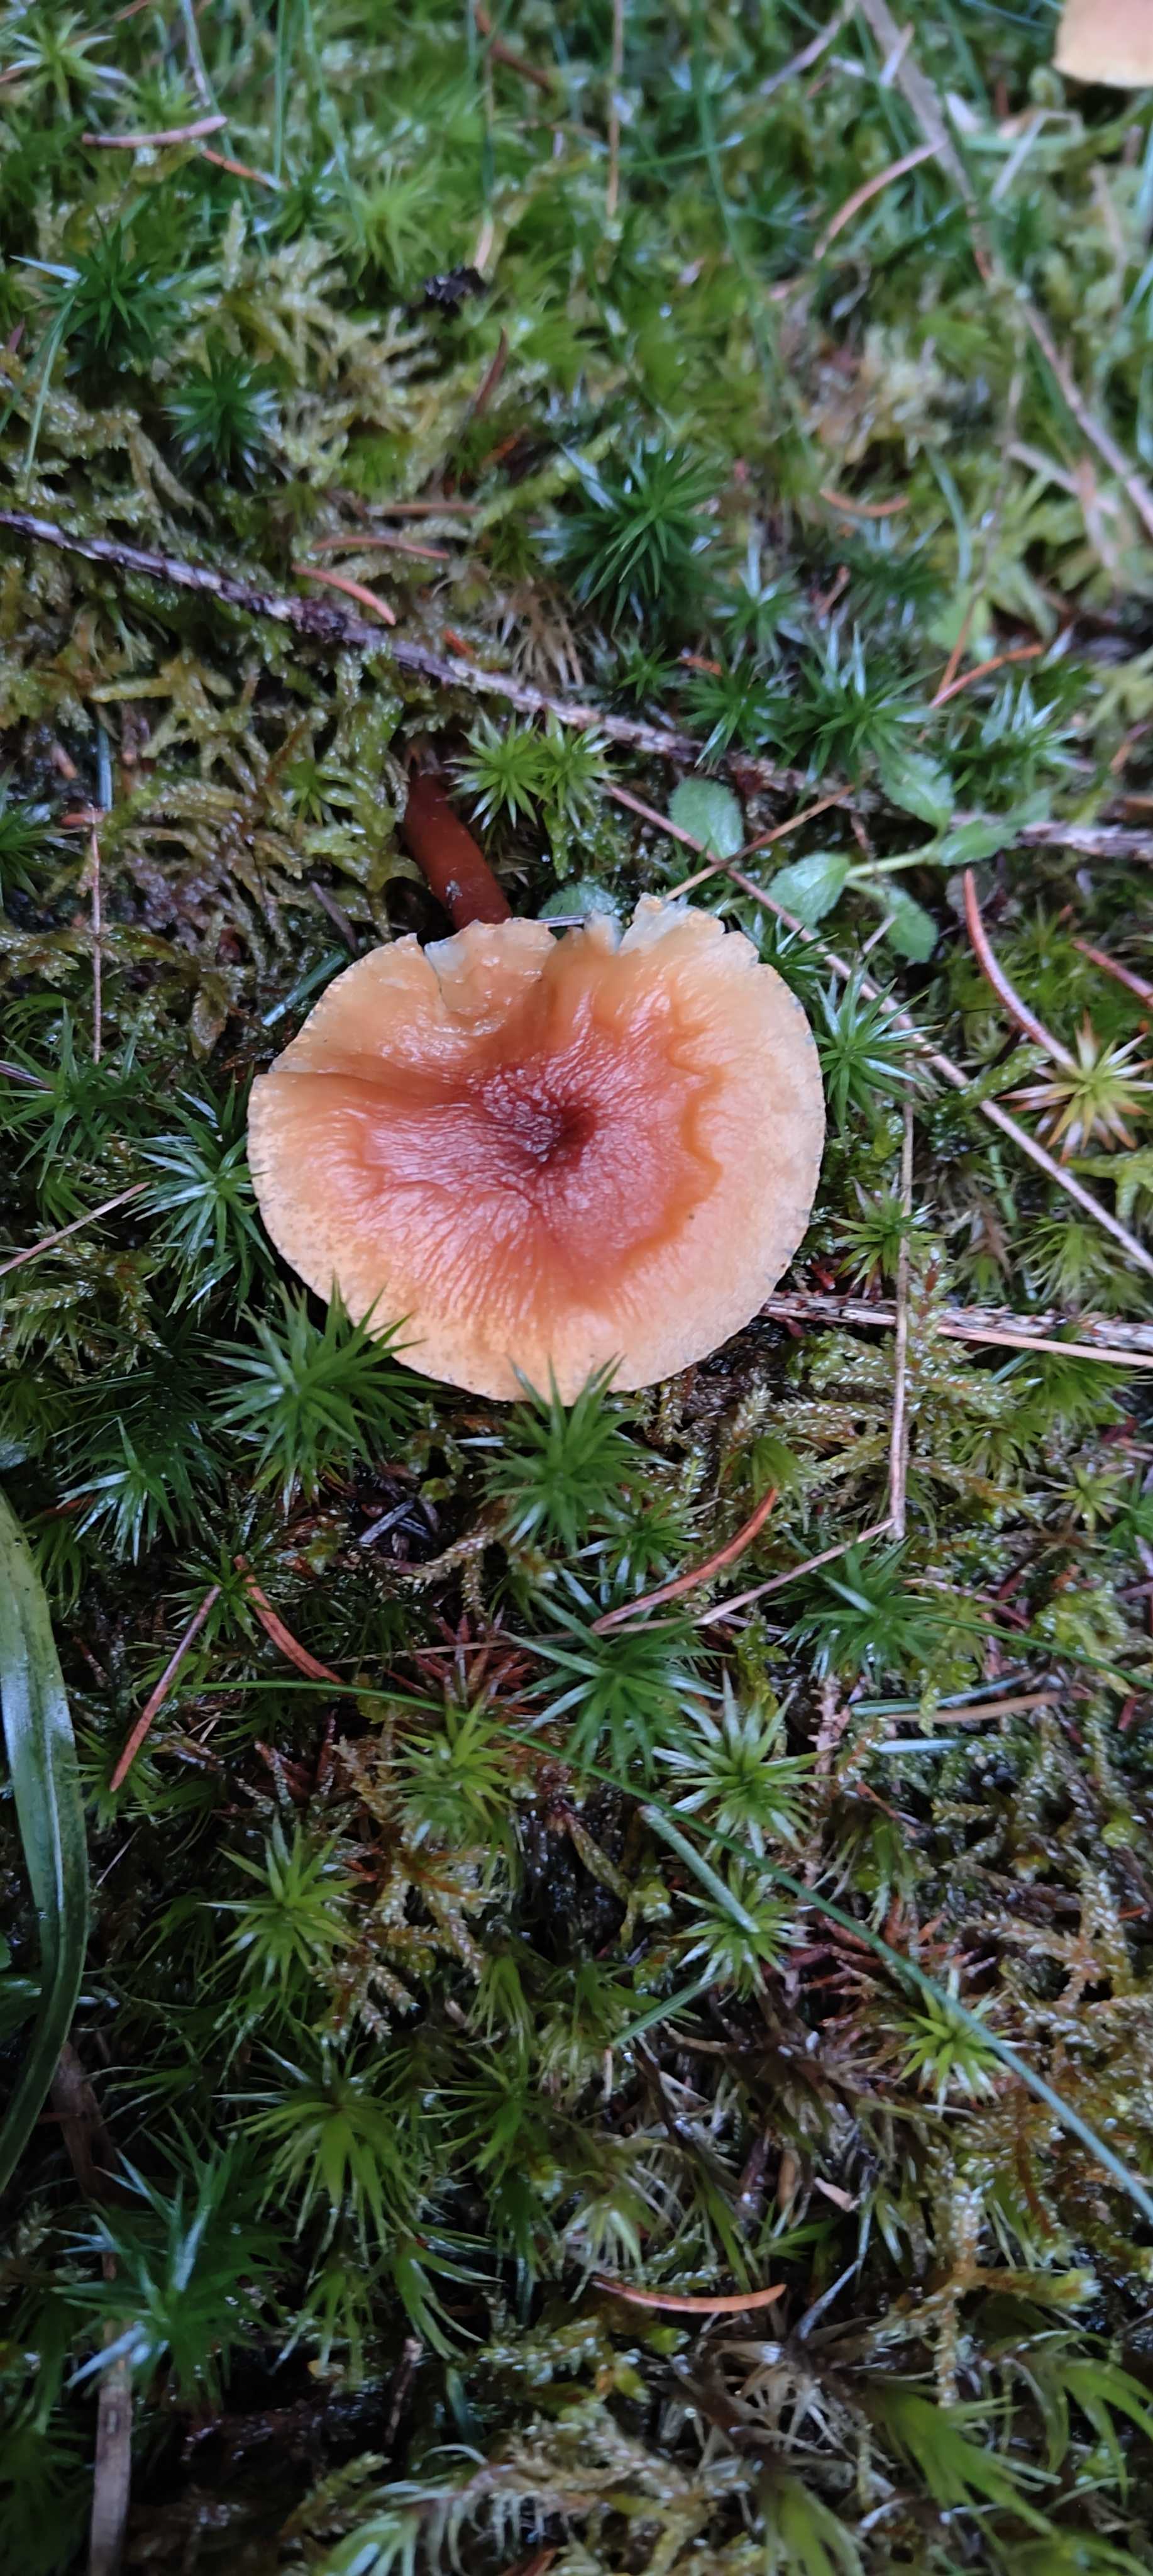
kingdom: Fungi
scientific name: Fungi
